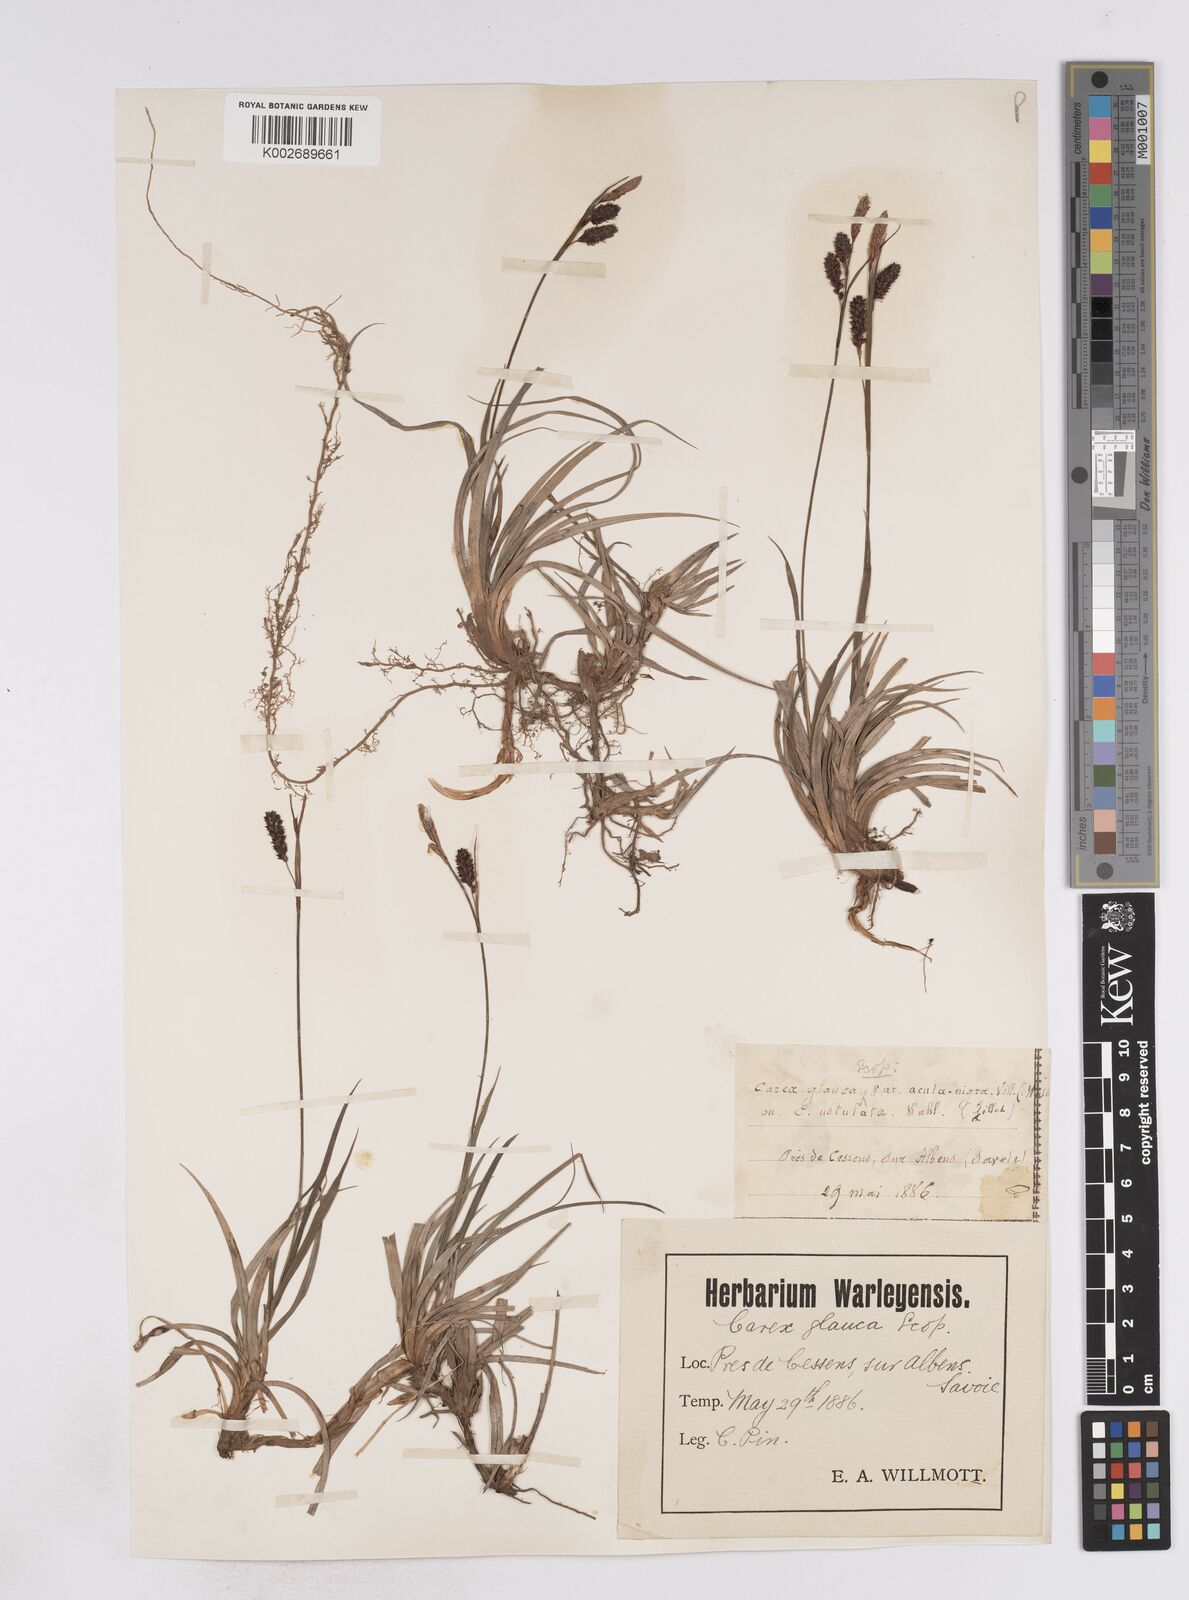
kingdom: Plantae
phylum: Tracheophyta
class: Liliopsida
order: Poales
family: Cyperaceae
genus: Carex
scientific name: Carex flacca
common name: Glaucous sedge
